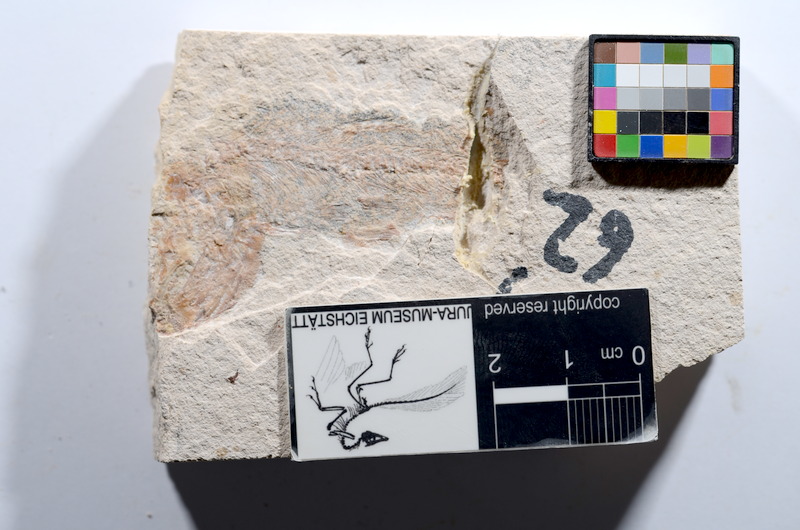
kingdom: Animalia
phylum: Chordata
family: Ascalaboidae
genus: Tharsis
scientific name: Tharsis dubius
